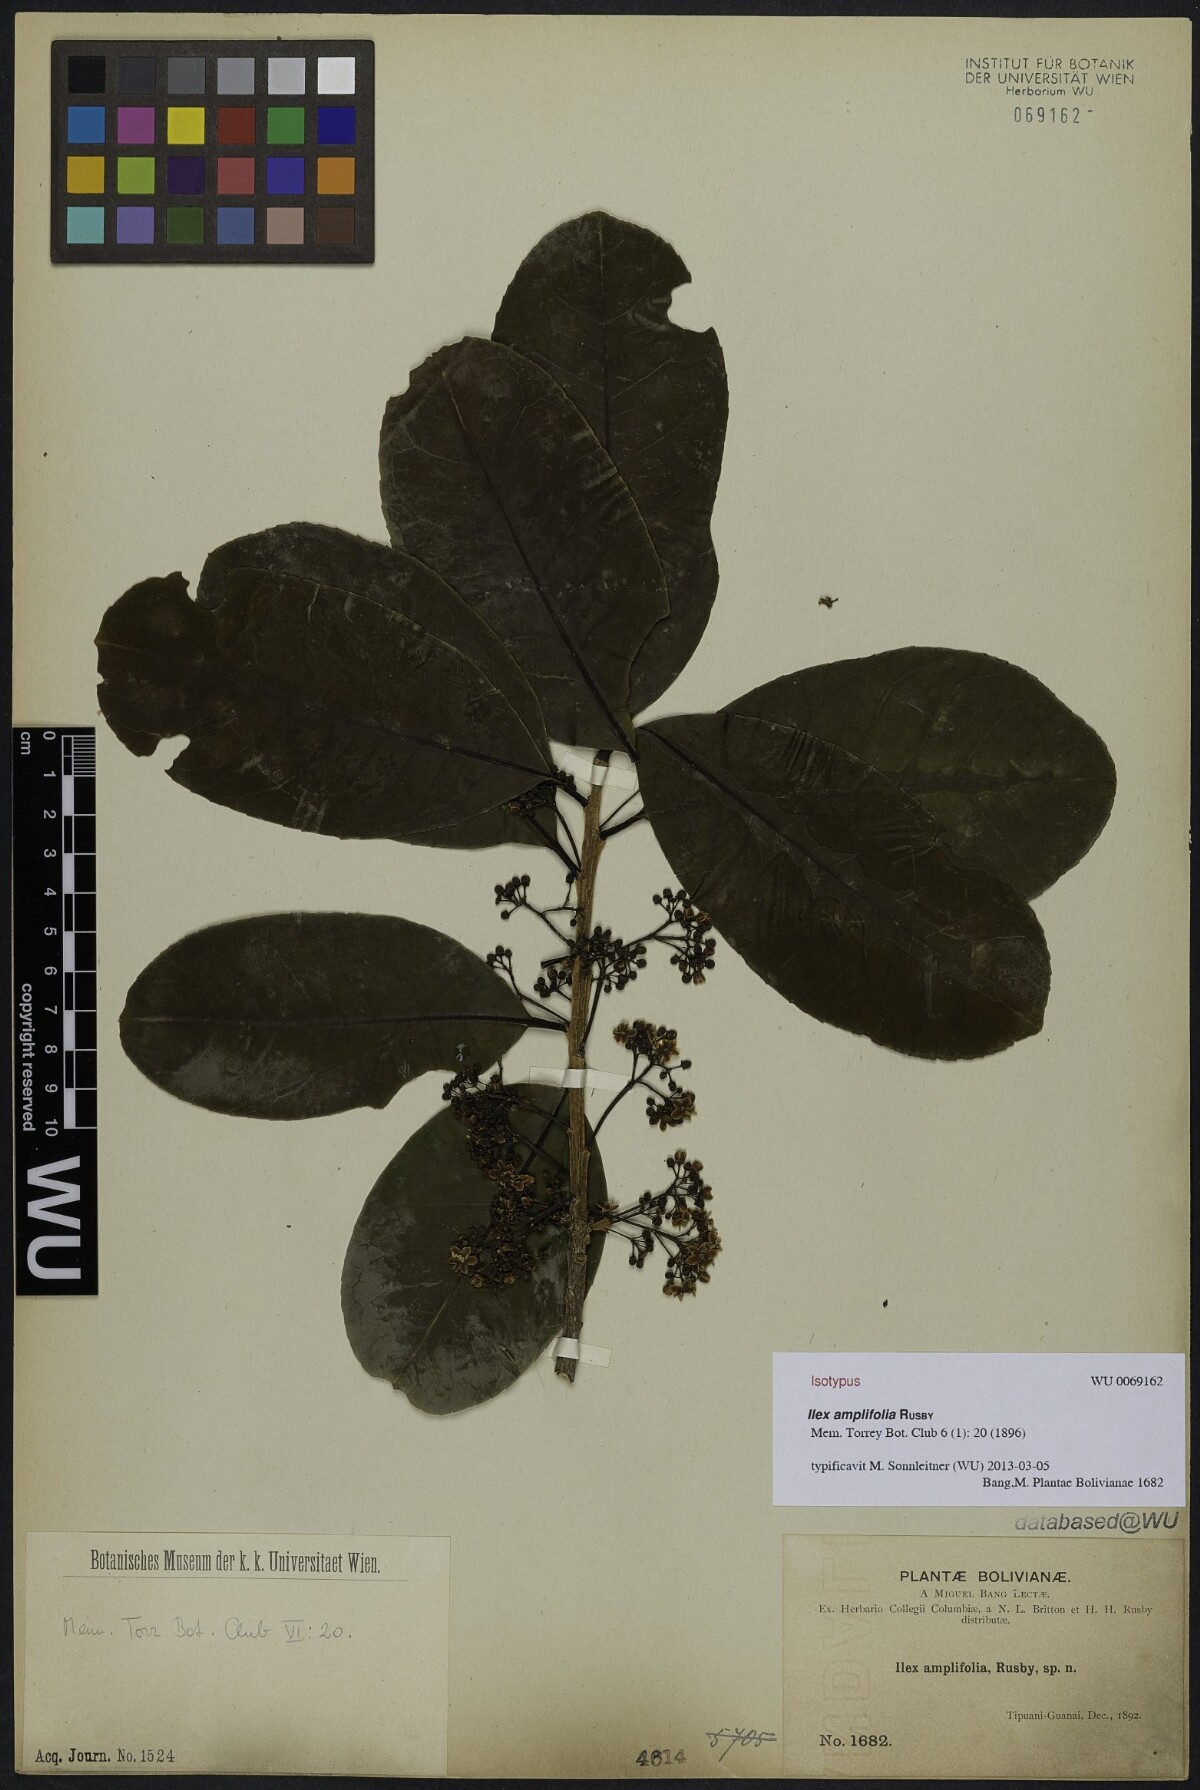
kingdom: Plantae
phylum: Tracheophyta
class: Magnoliopsida
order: Aquifoliales
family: Aquifoliaceae
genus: Ilex
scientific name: Ilex amplifolia
